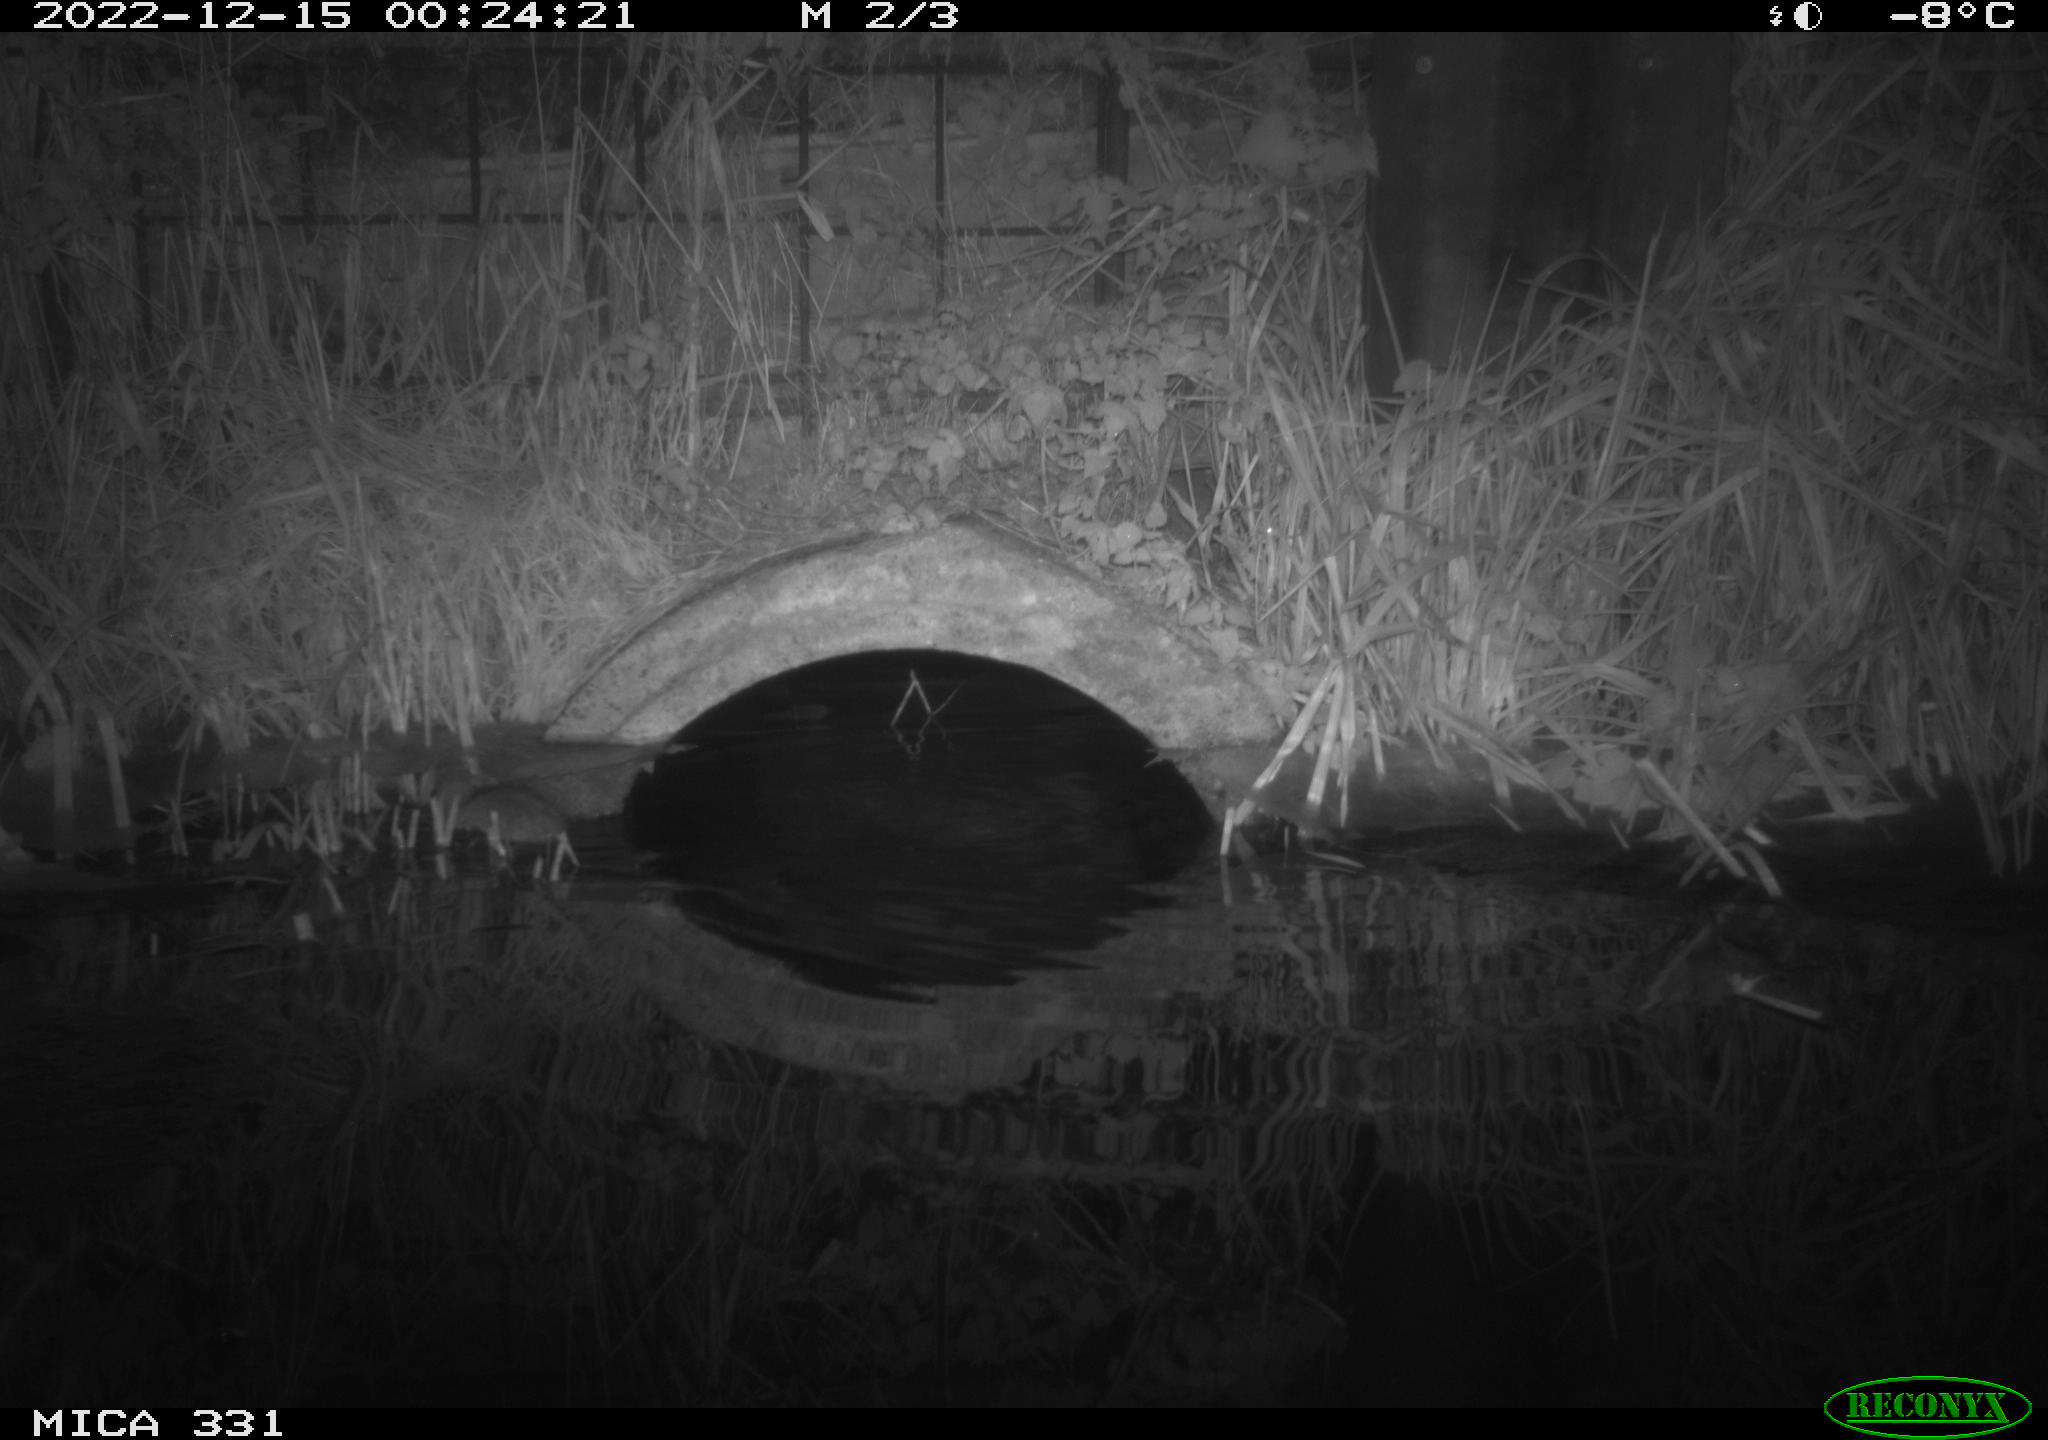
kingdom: Animalia
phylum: Chordata
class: Mammalia
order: Rodentia
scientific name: Rodentia
